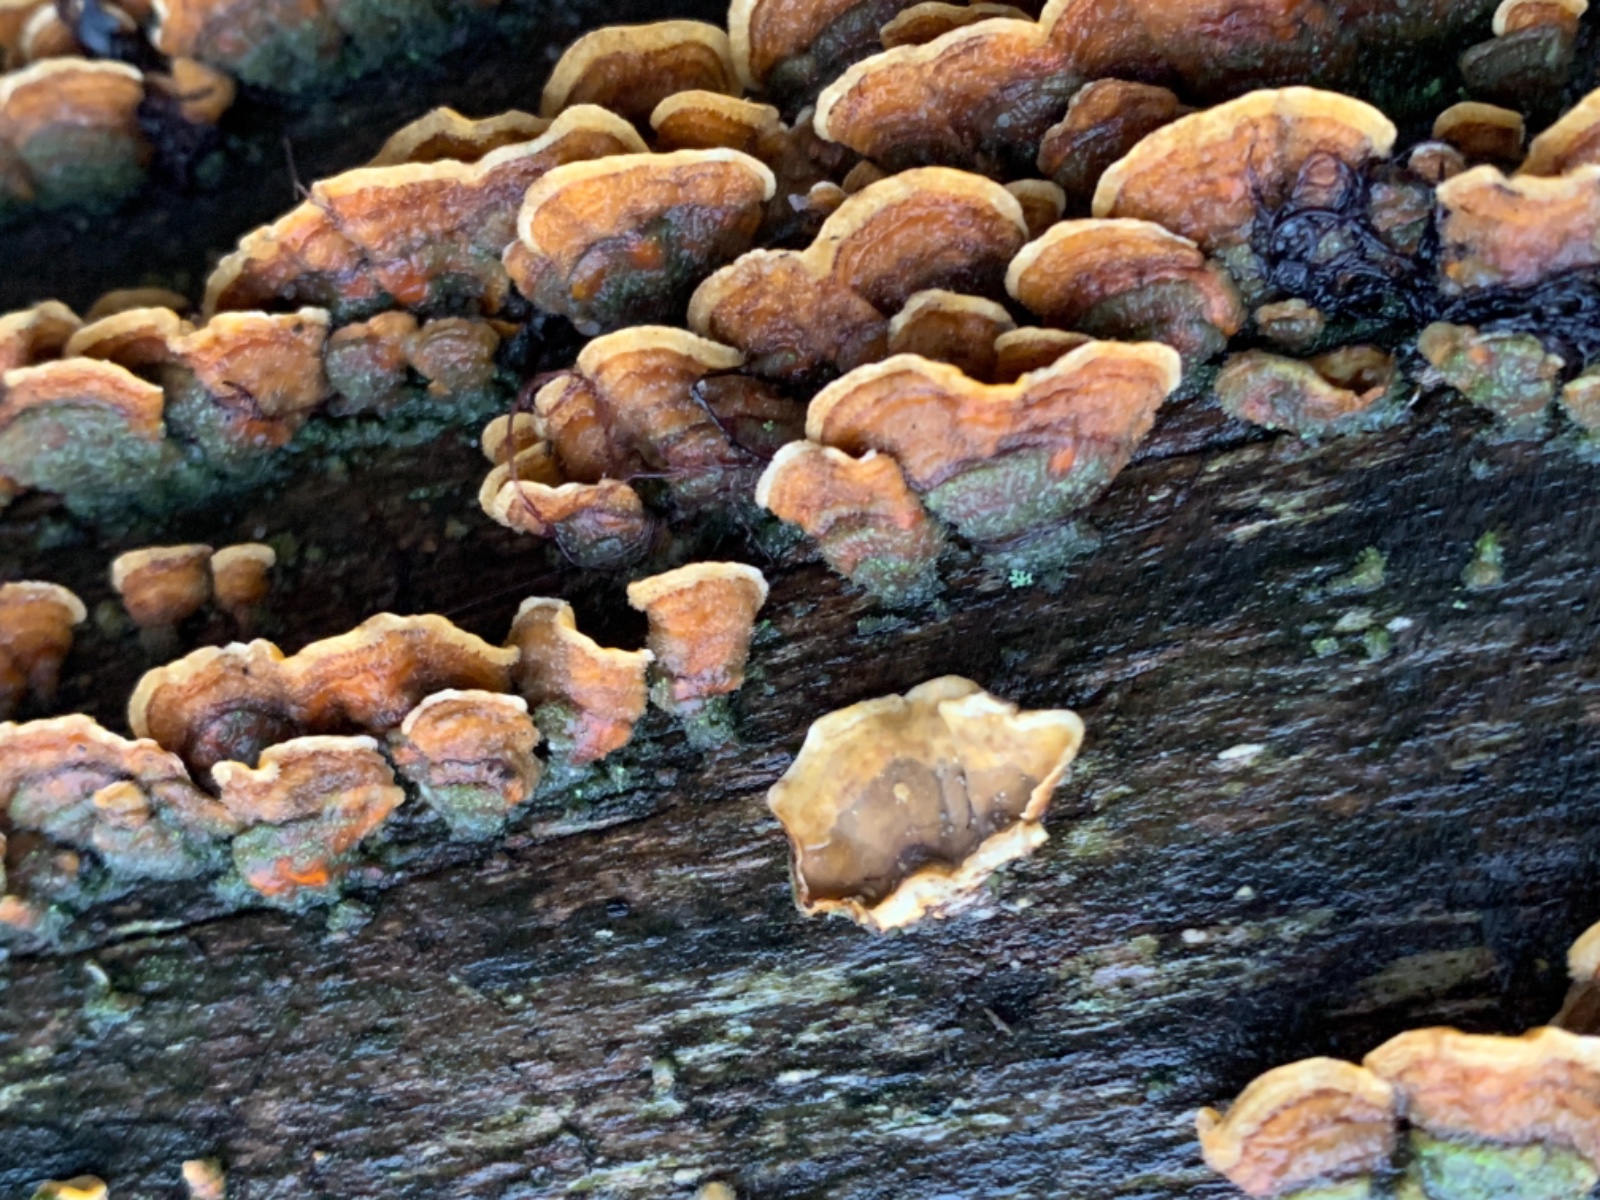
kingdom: Fungi
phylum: Basidiomycota
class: Agaricomycetes
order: Russulales
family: Stereaceae
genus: Stereum
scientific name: Stereum hirsutum
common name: håret lædersvamp
